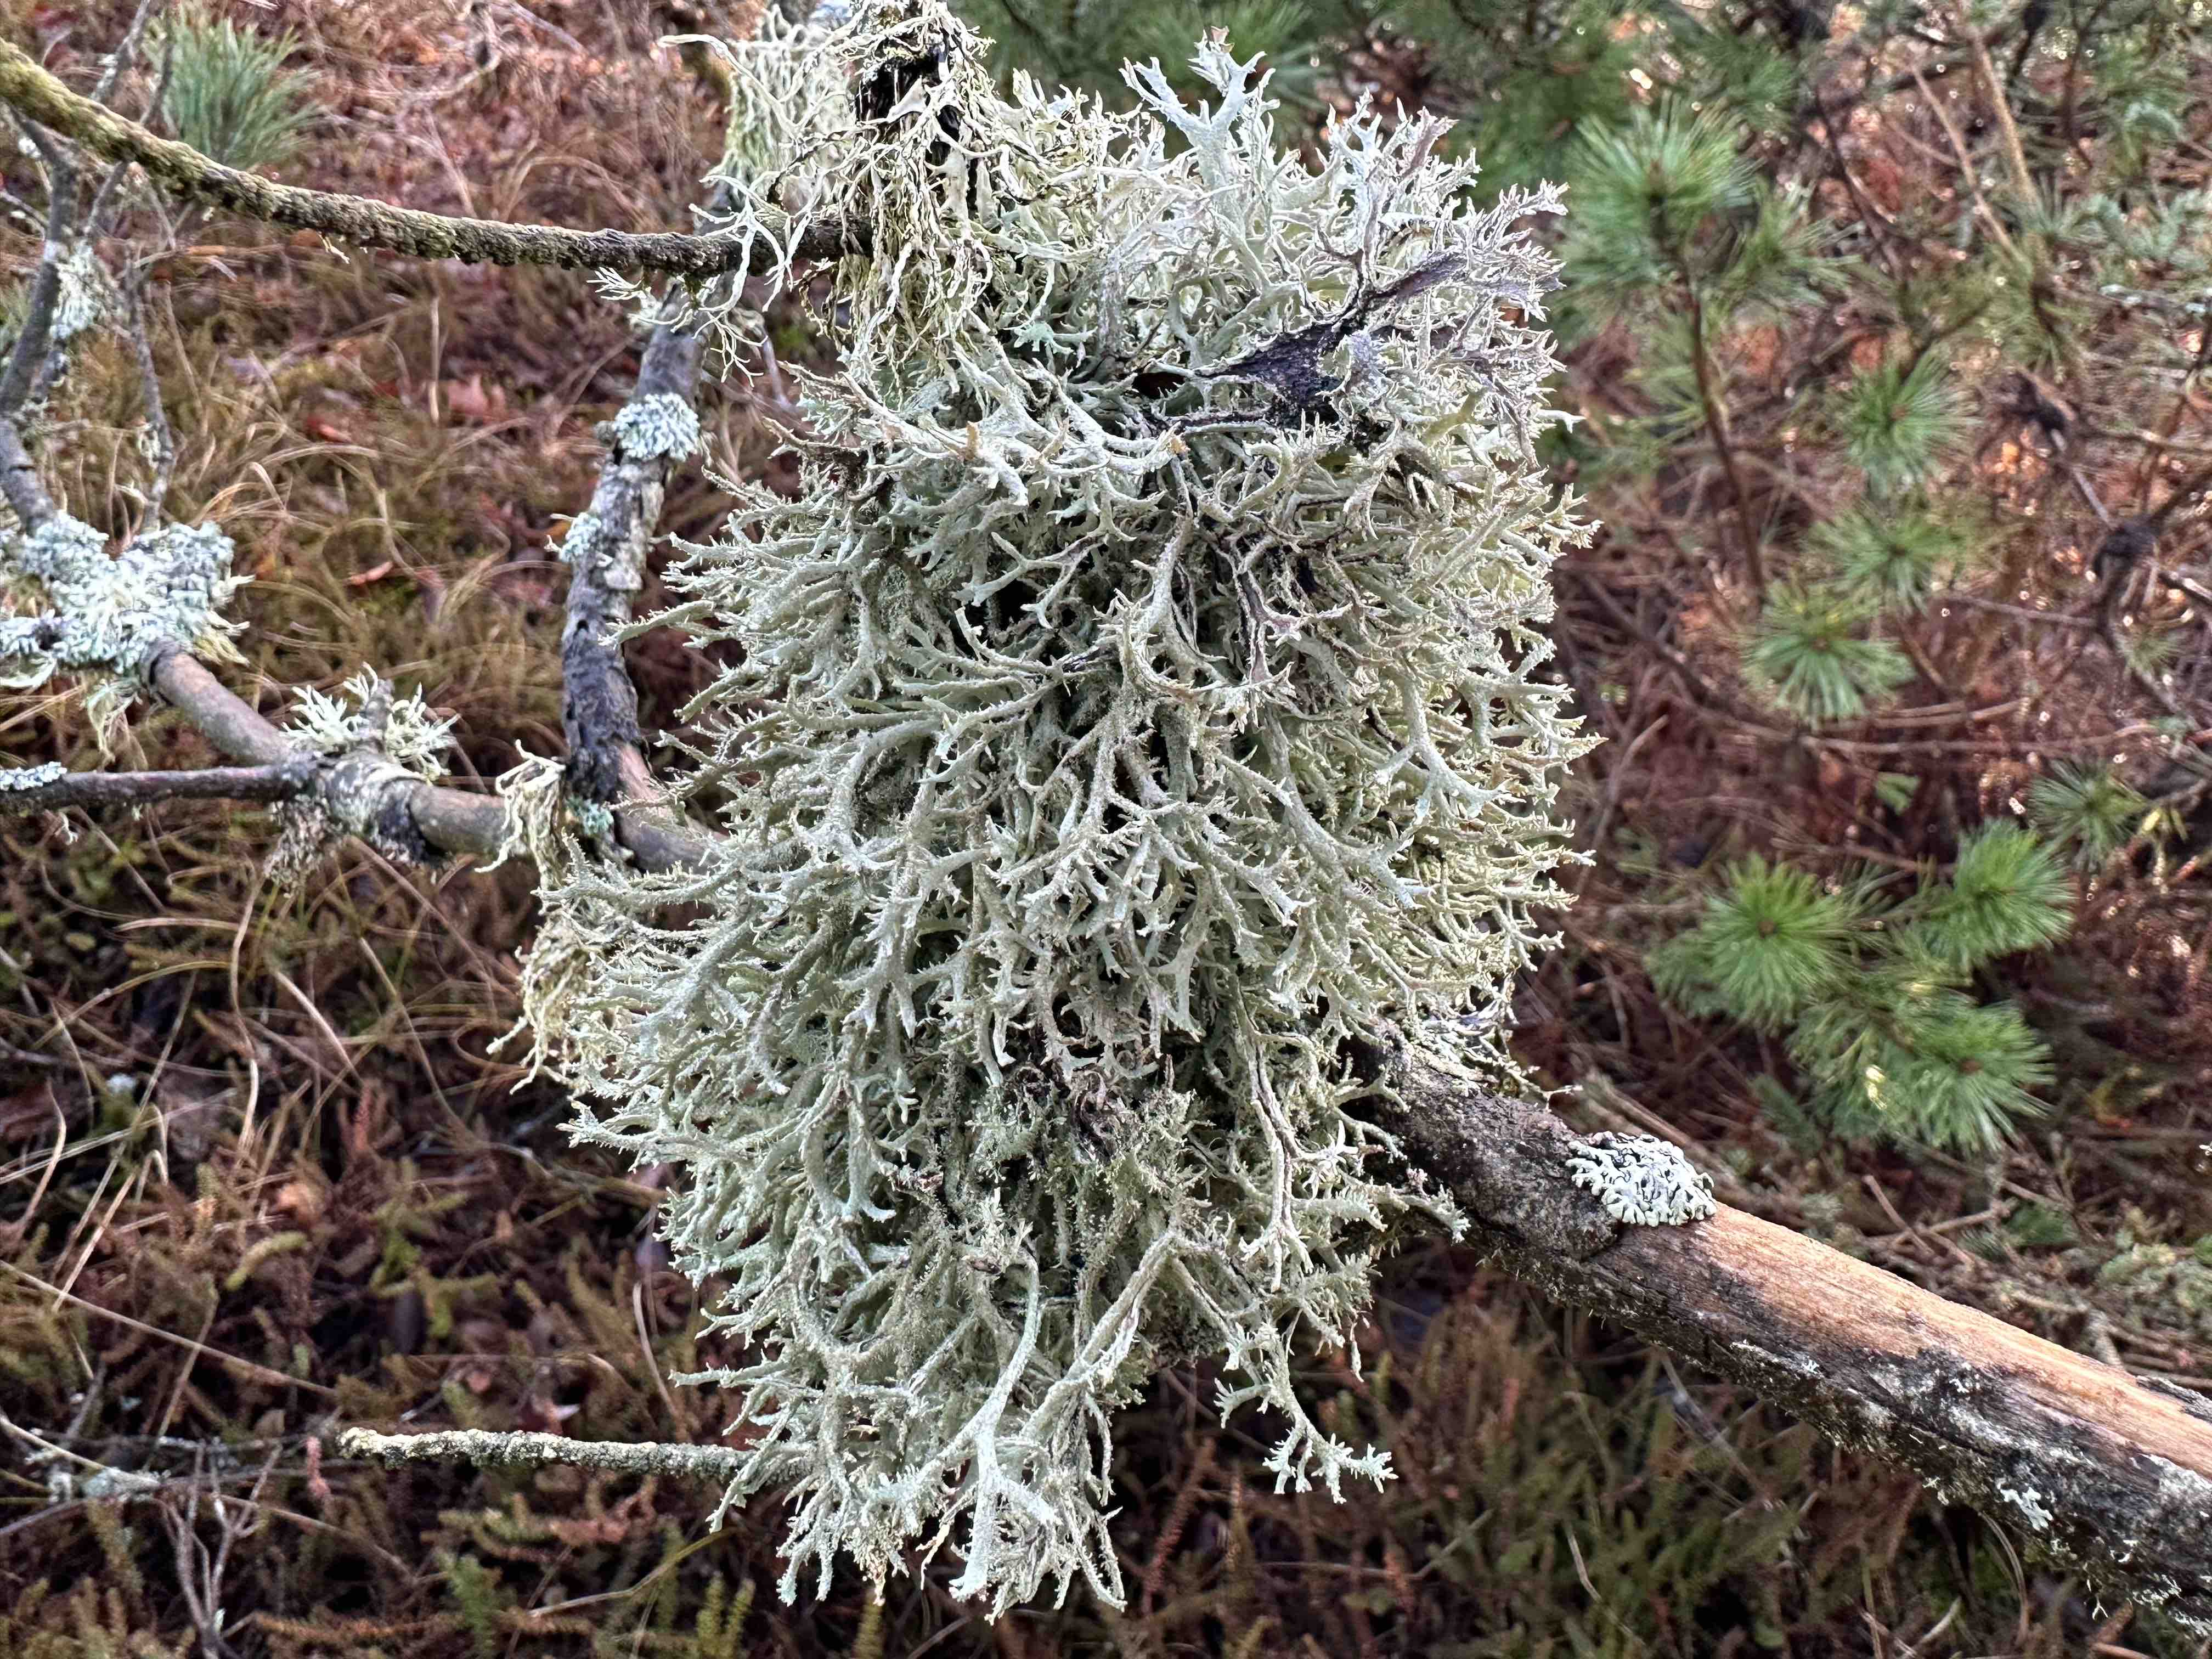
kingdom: Fungi
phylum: Ascomycota
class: Lecanoromycetes
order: Lecanorales
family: Parmeliaceae
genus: Pseudevernia
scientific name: Pseudevernia furfuracea
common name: grå fyrrelav
